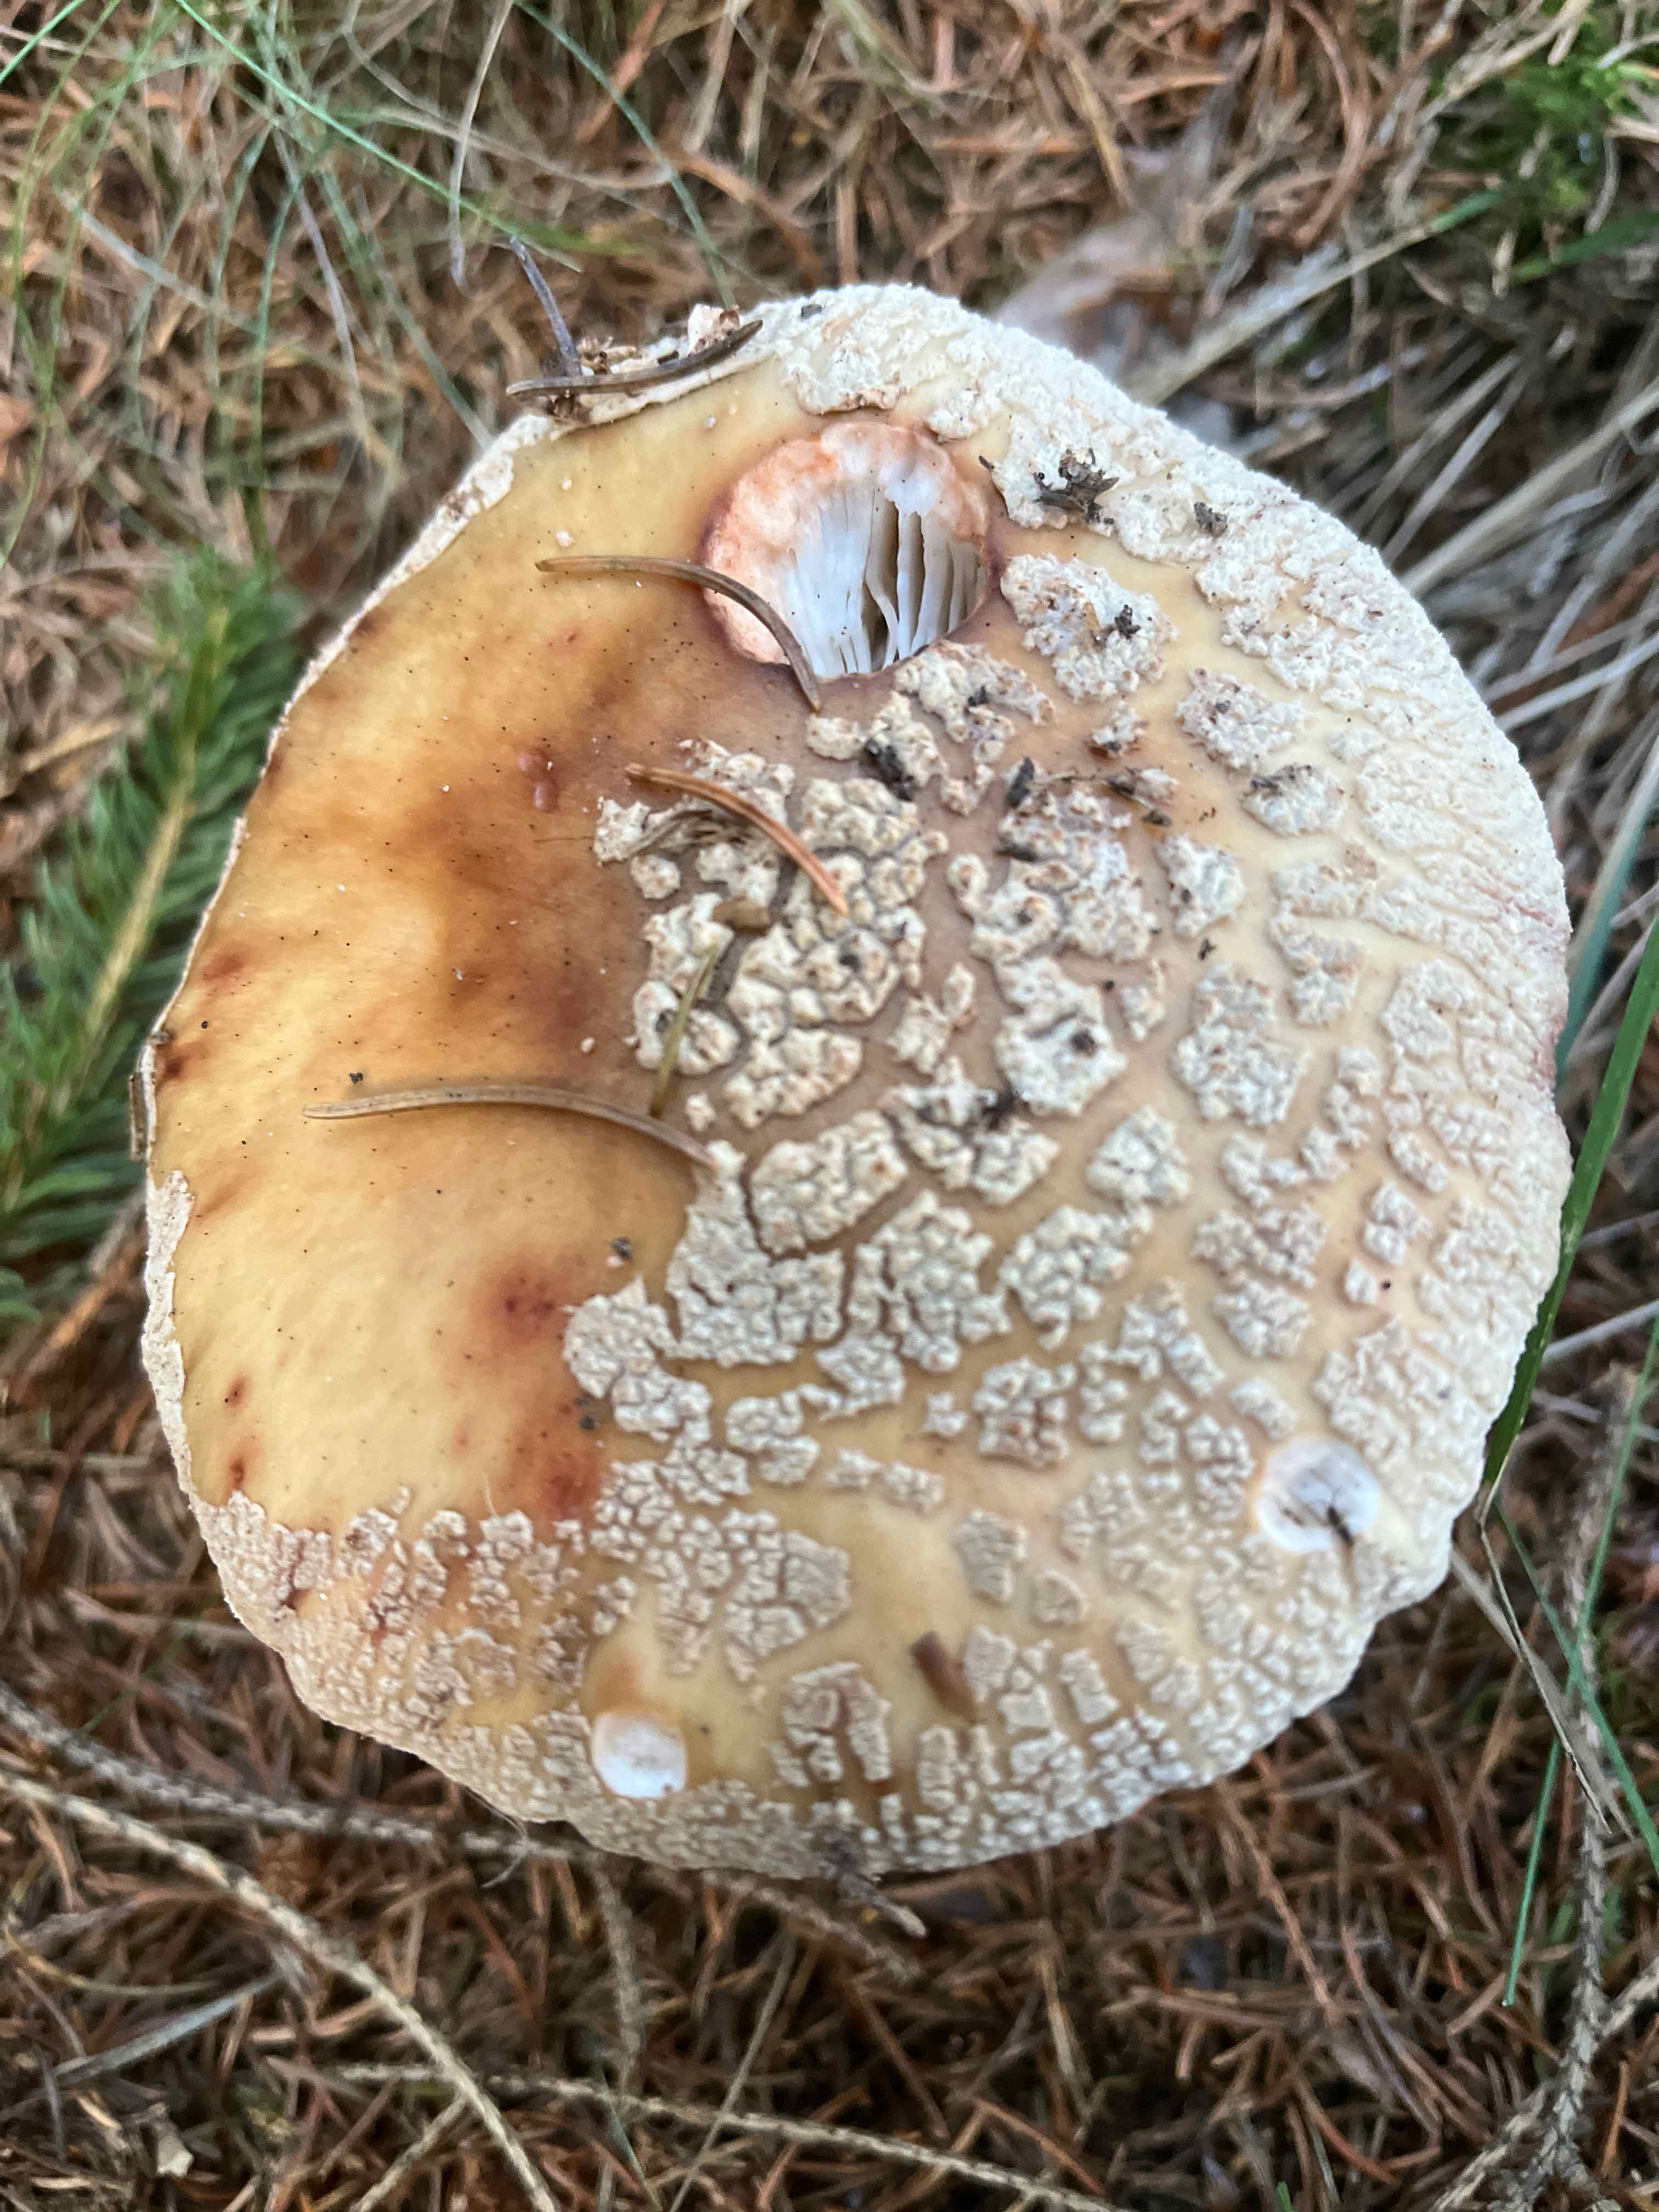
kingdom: Fungi
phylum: Basidiomycota
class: Agaricomycetes
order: Agaricales
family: Amanitaceae
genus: Amanita
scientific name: Amanita rubescens
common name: rødmende fluesvamp
